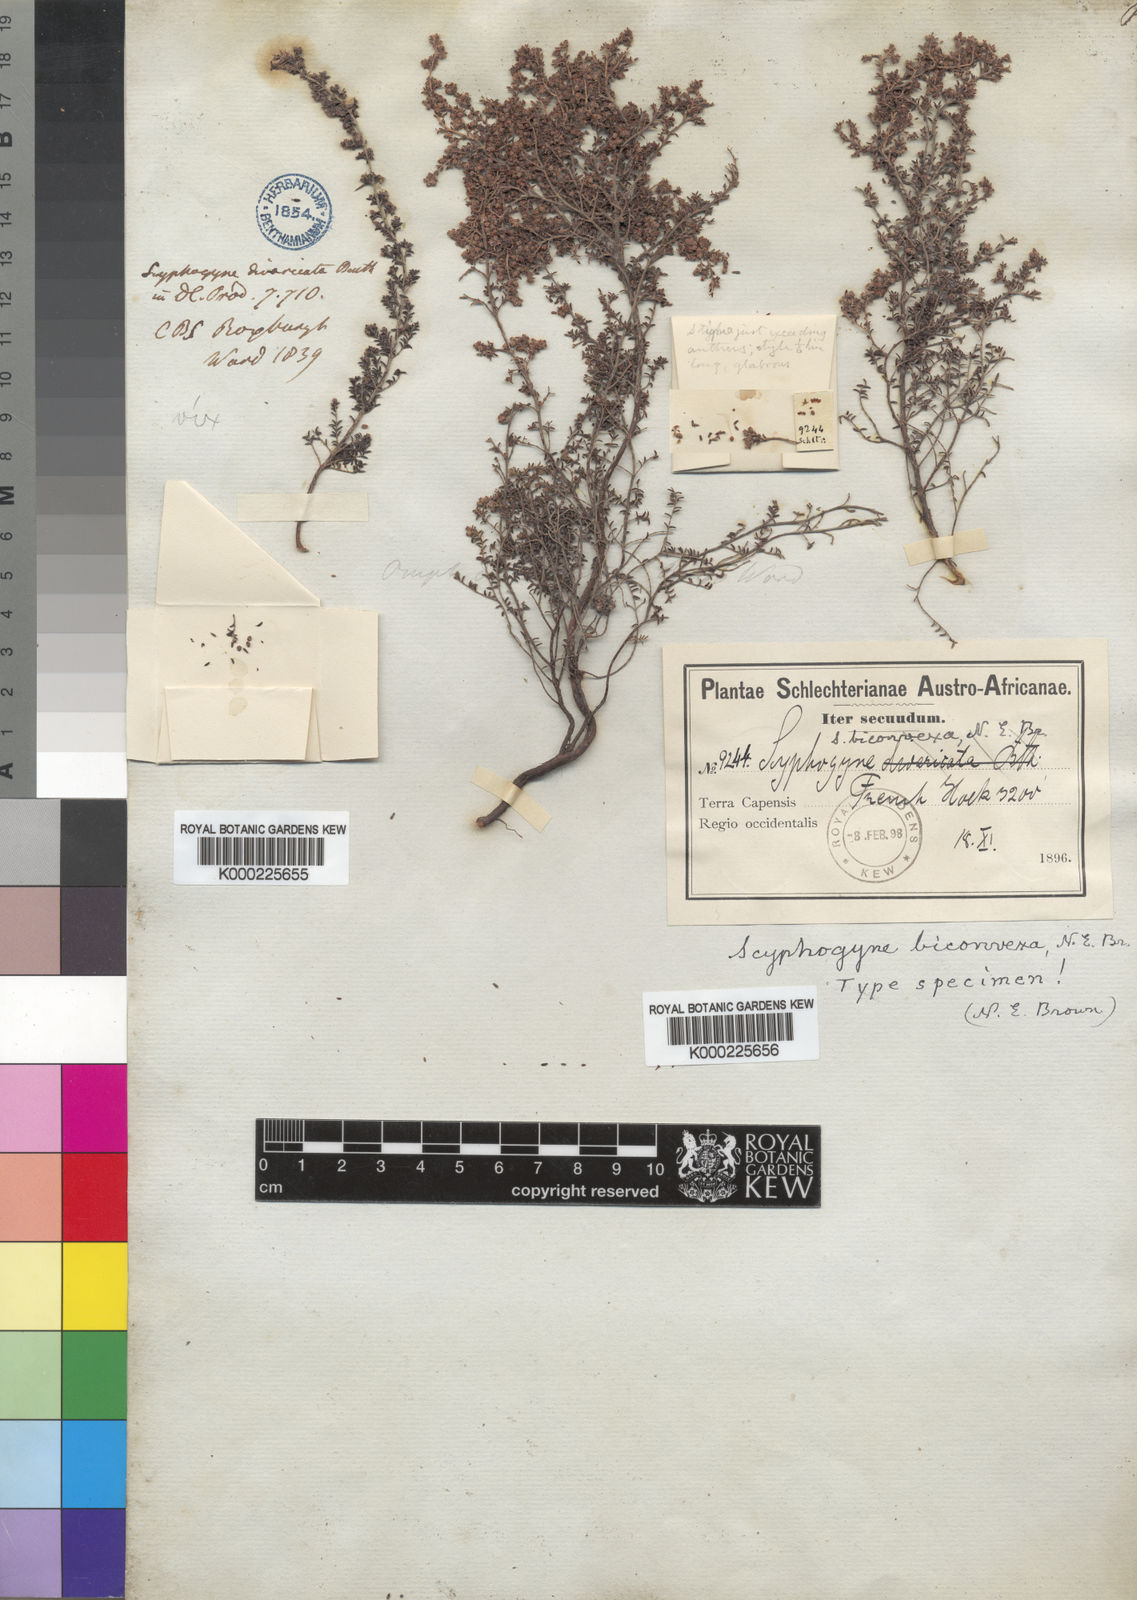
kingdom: Plantae
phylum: Tracheophyta
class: Magnoliopsida
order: Ericales
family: Ericaceae
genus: Erica
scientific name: Erica rigidula
